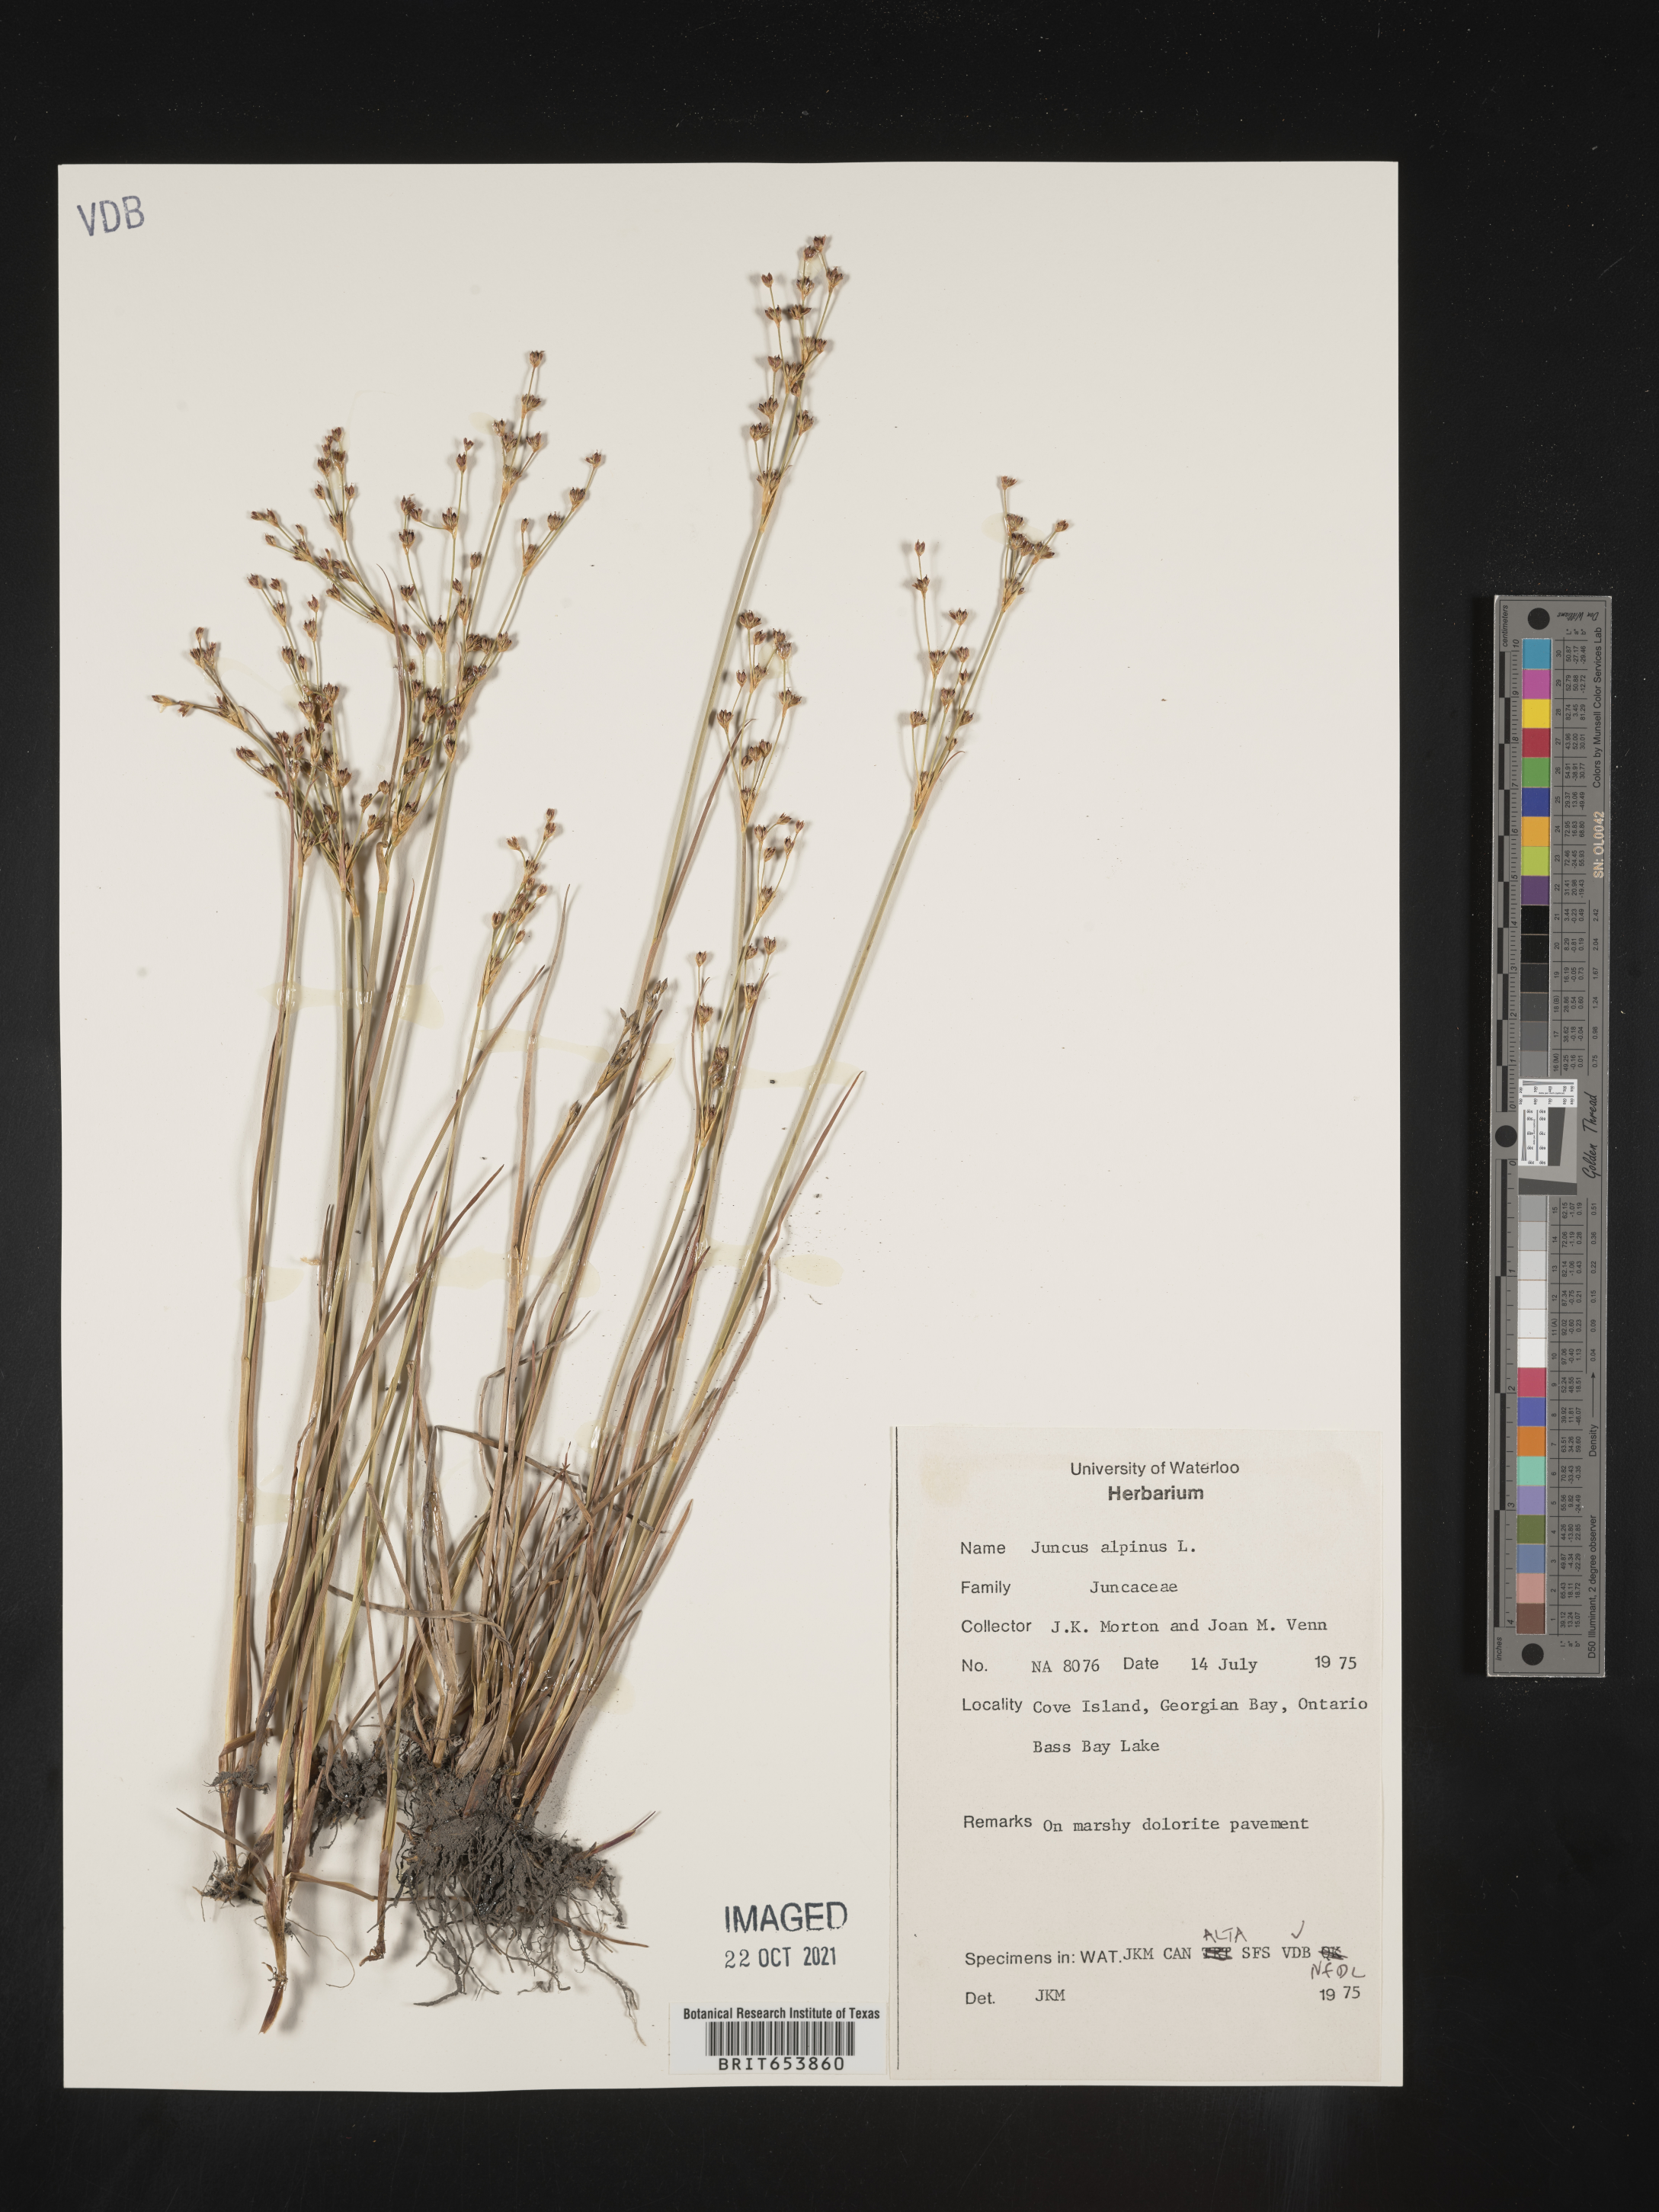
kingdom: Plantae
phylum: Tracheophyta
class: Liliopsida
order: Poales
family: Juncaceae
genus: Juncus
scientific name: Juncus alpinoarticulatus
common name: Alpine rush
